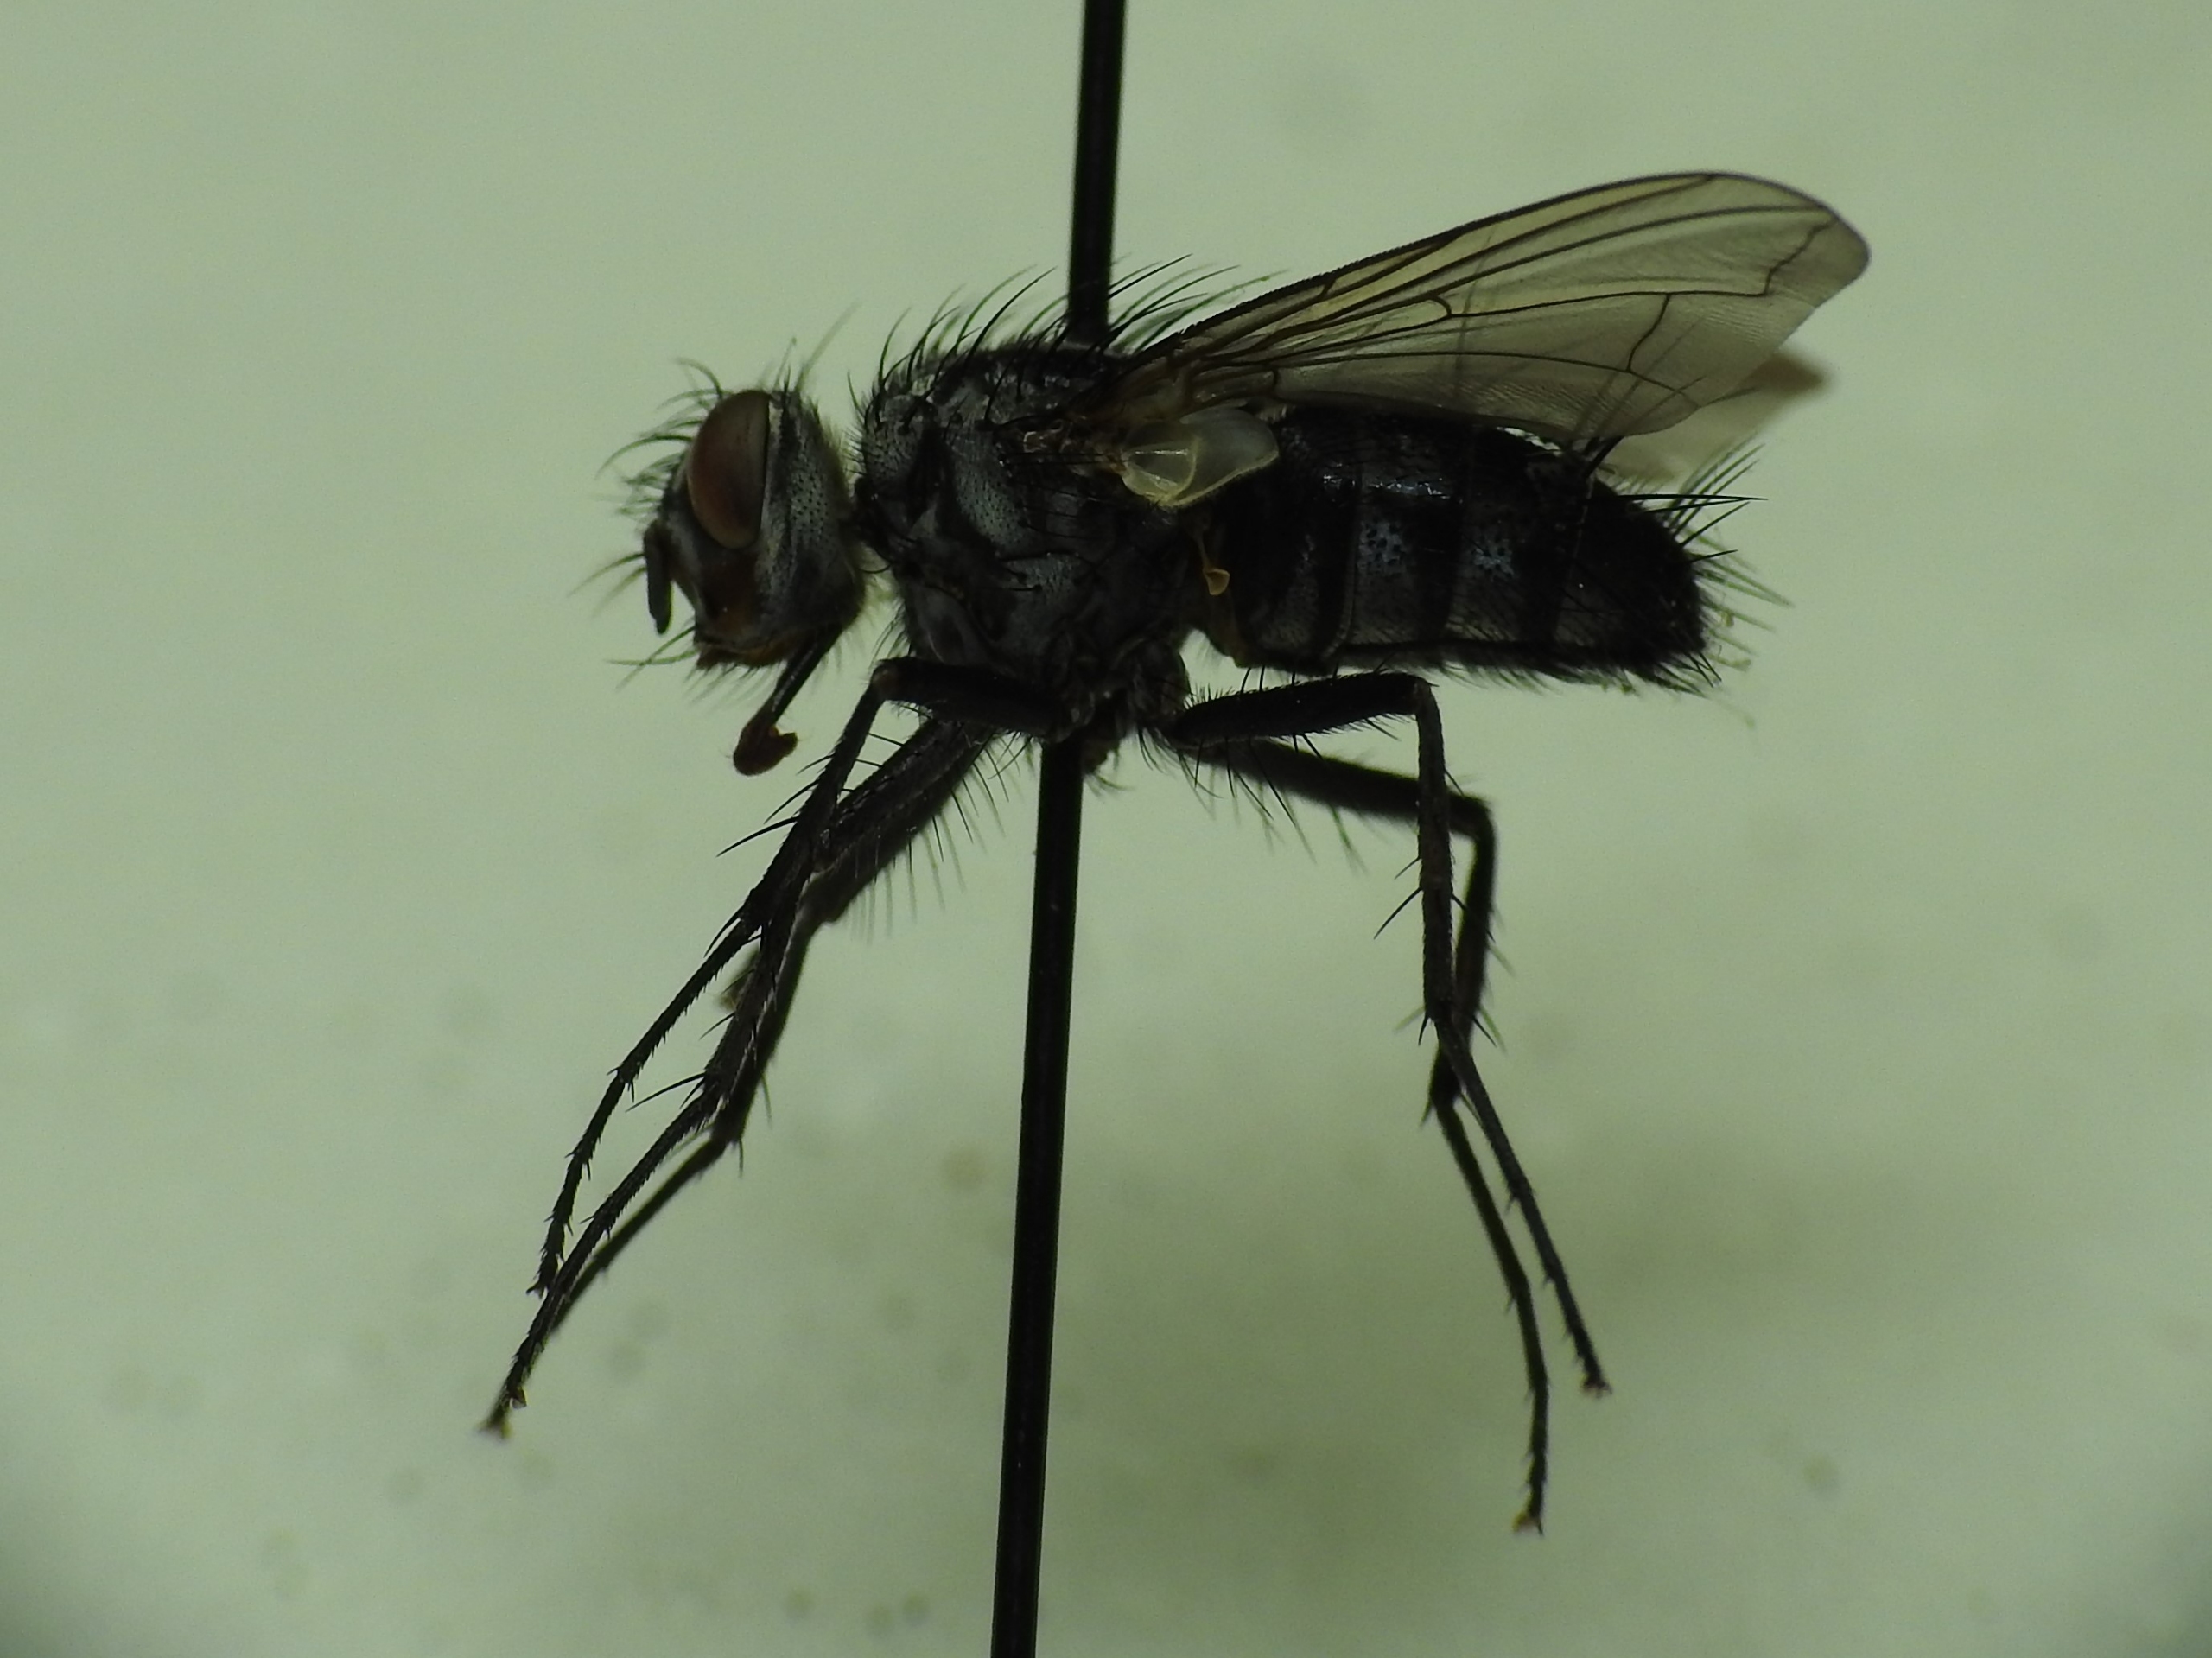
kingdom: Animalia
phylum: Arthropoda
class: Insecta
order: Diptera
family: Tachinidae
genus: Dinera
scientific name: Dinera ferina
